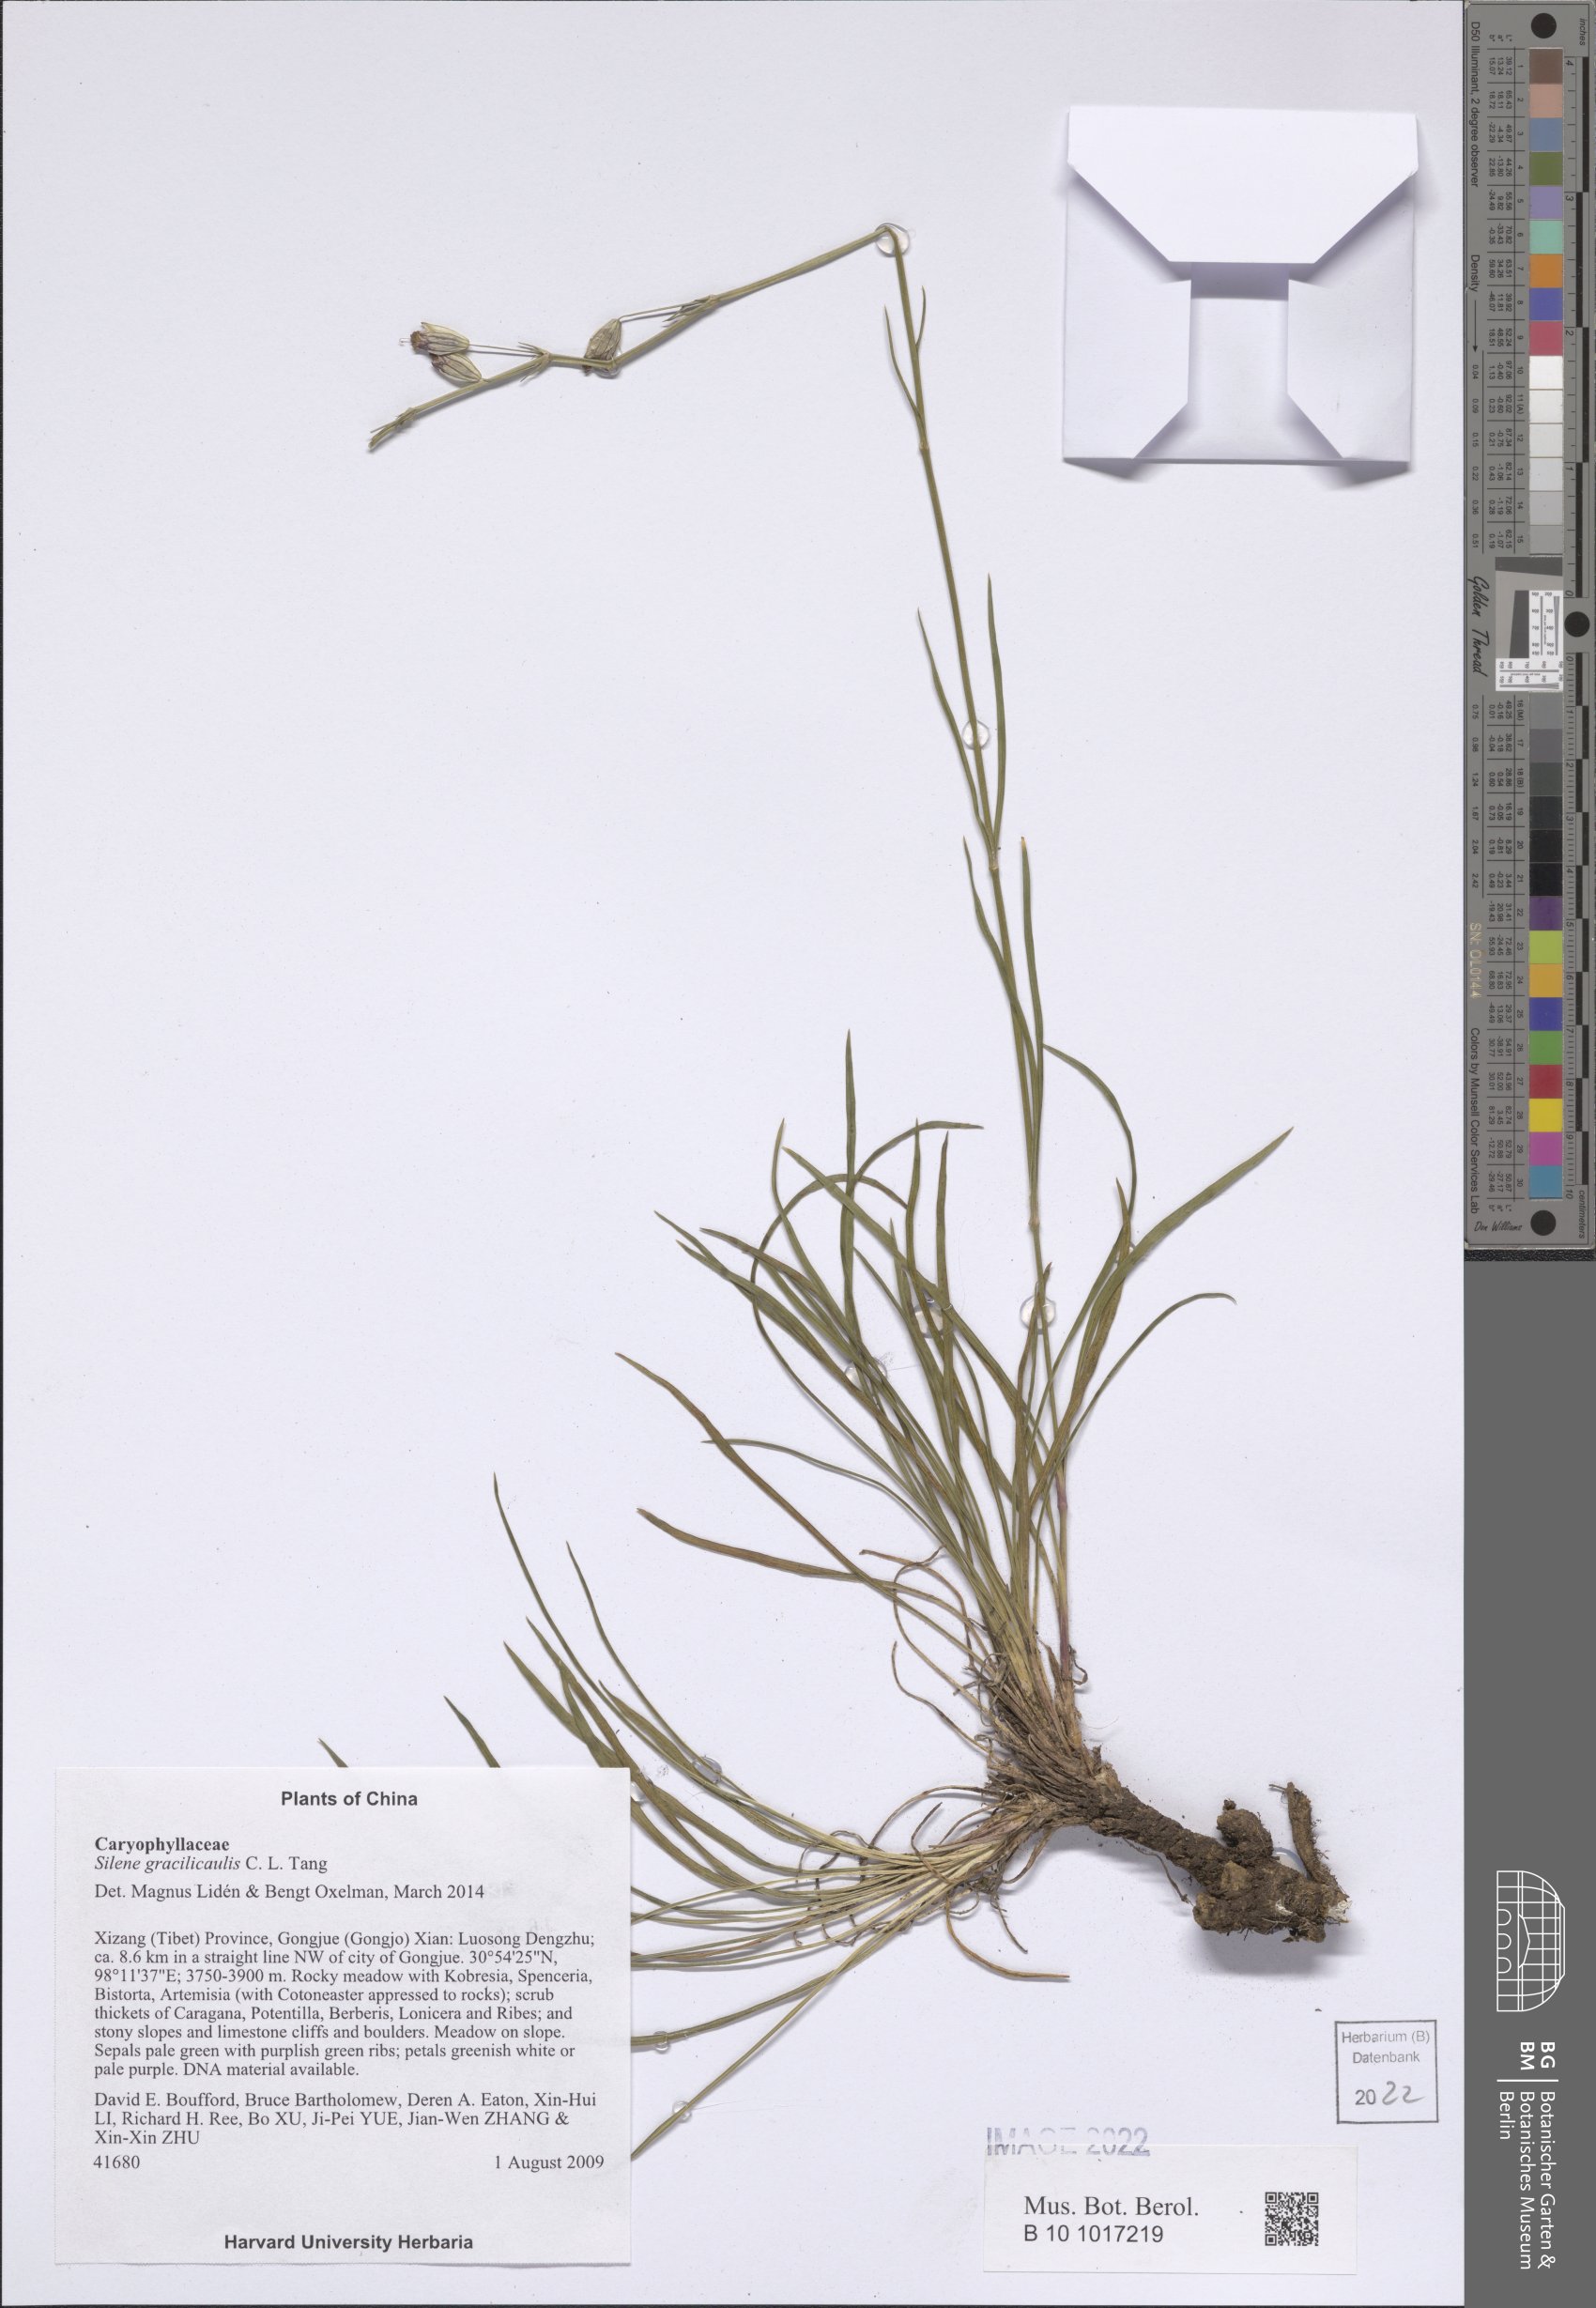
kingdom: Plantae
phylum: Tracheophyta
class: Magnoliopsida
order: Caryophyllales
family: Caryophyllaceae
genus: Silene
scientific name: Silene gracilicaulis
